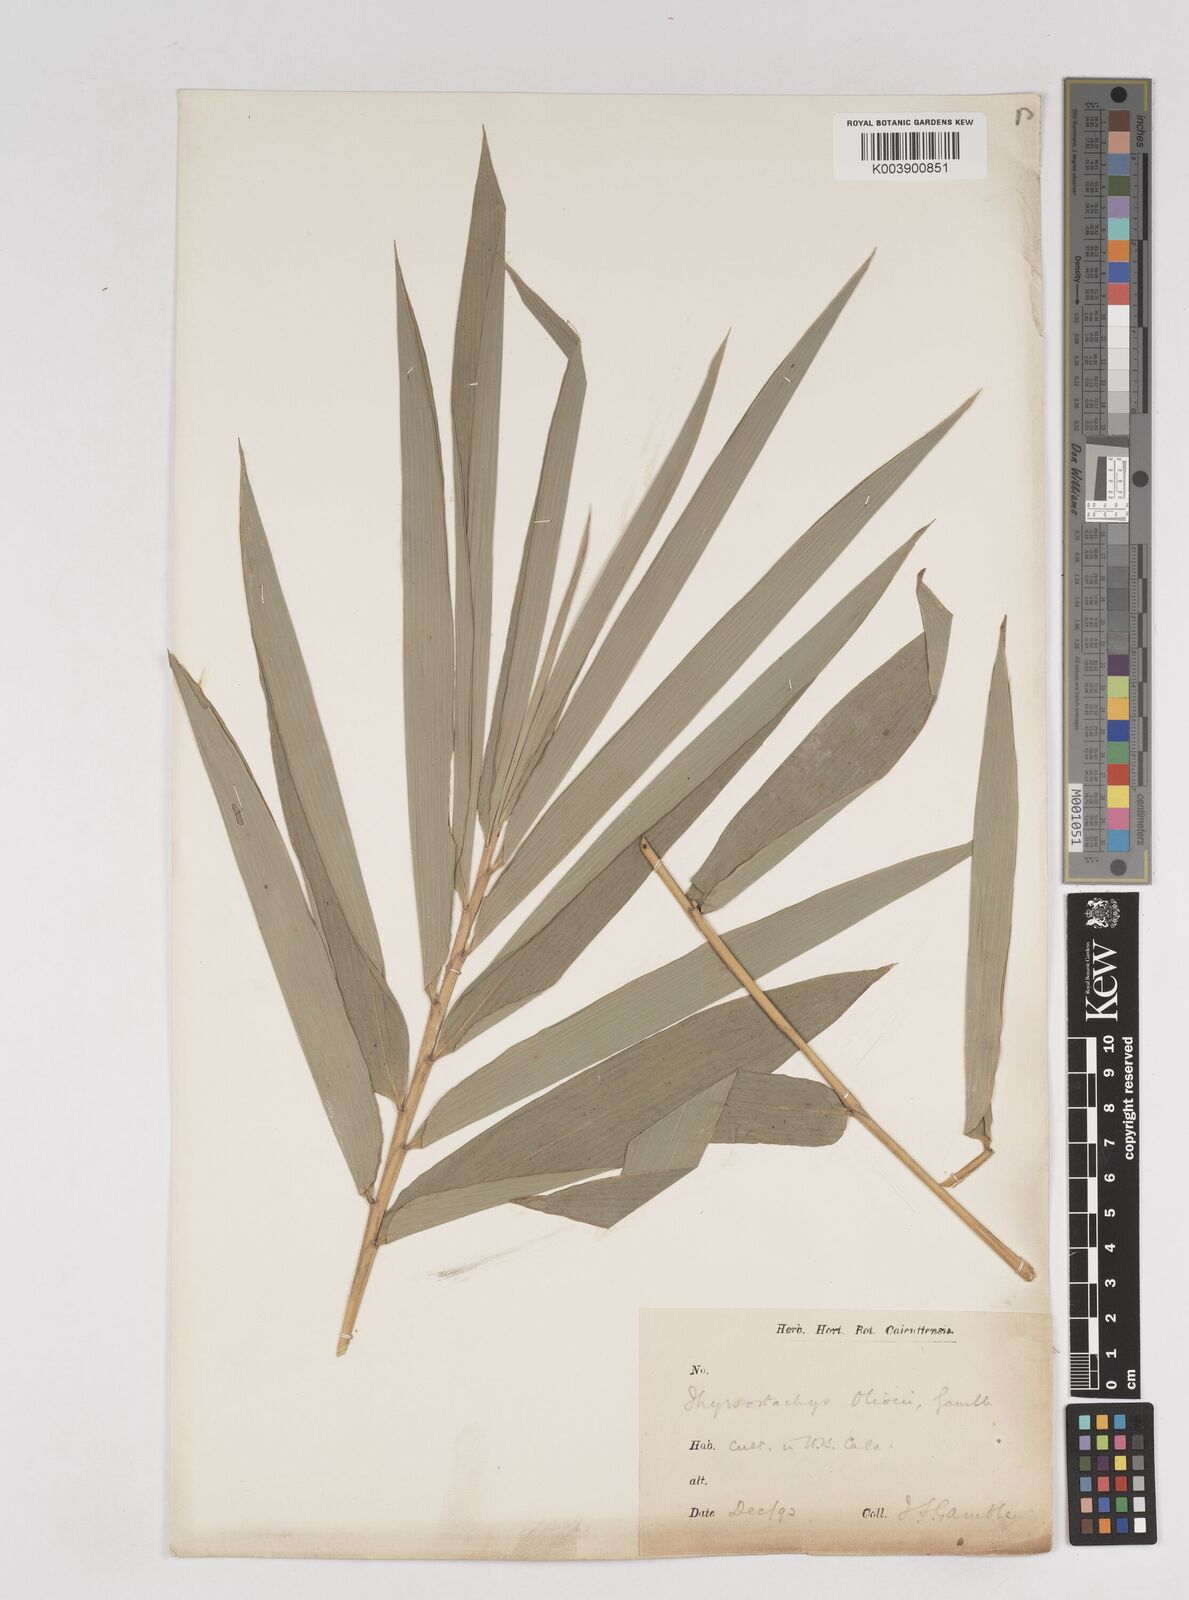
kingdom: Plantae
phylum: Tracheophyta
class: Liliopsida
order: Poales
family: Poaceae
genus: Thyrsostachys
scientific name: Thyrsostachys oliveri
